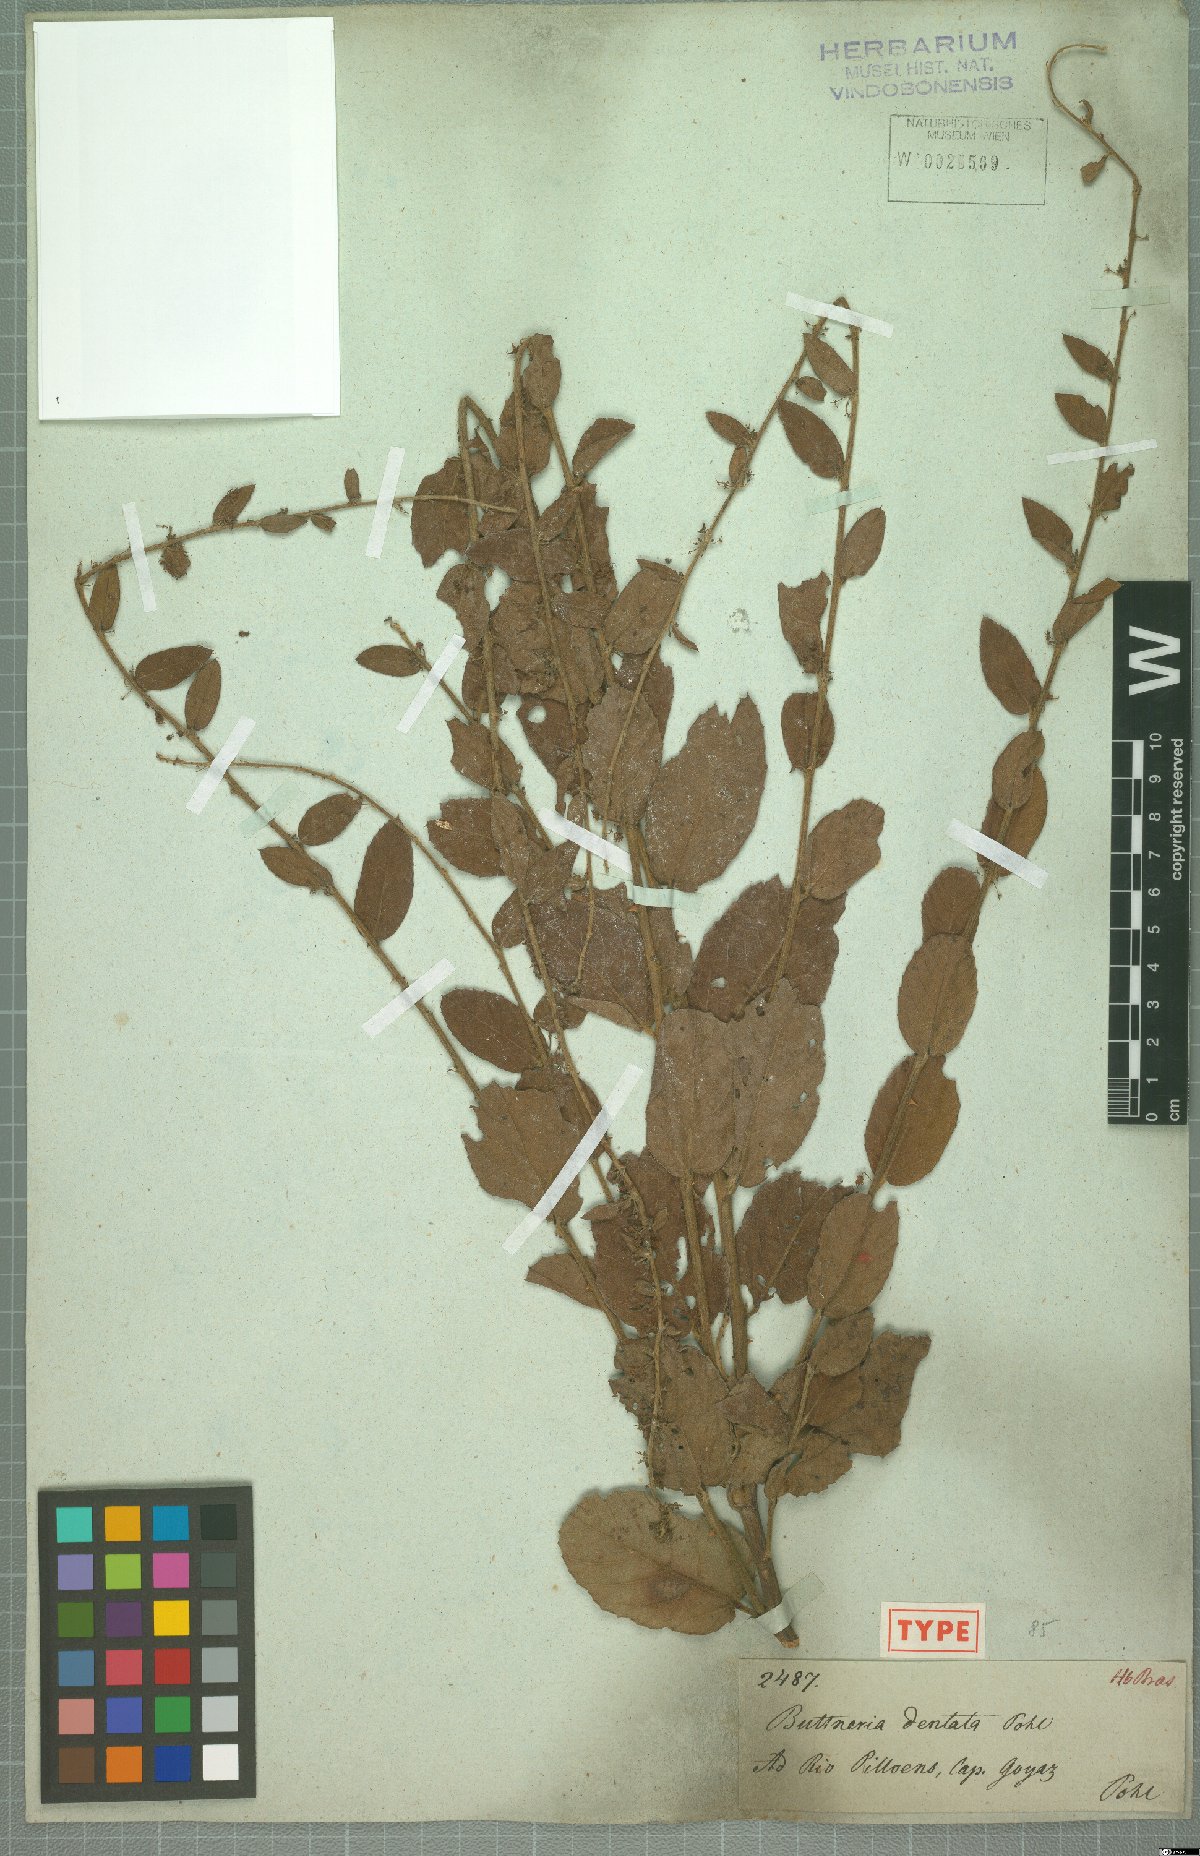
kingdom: Plantae
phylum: Tracheophyta
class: Magnoliopsida
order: Malvales
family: Malvaceae
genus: Byttneria
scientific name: Byttneria dentata
